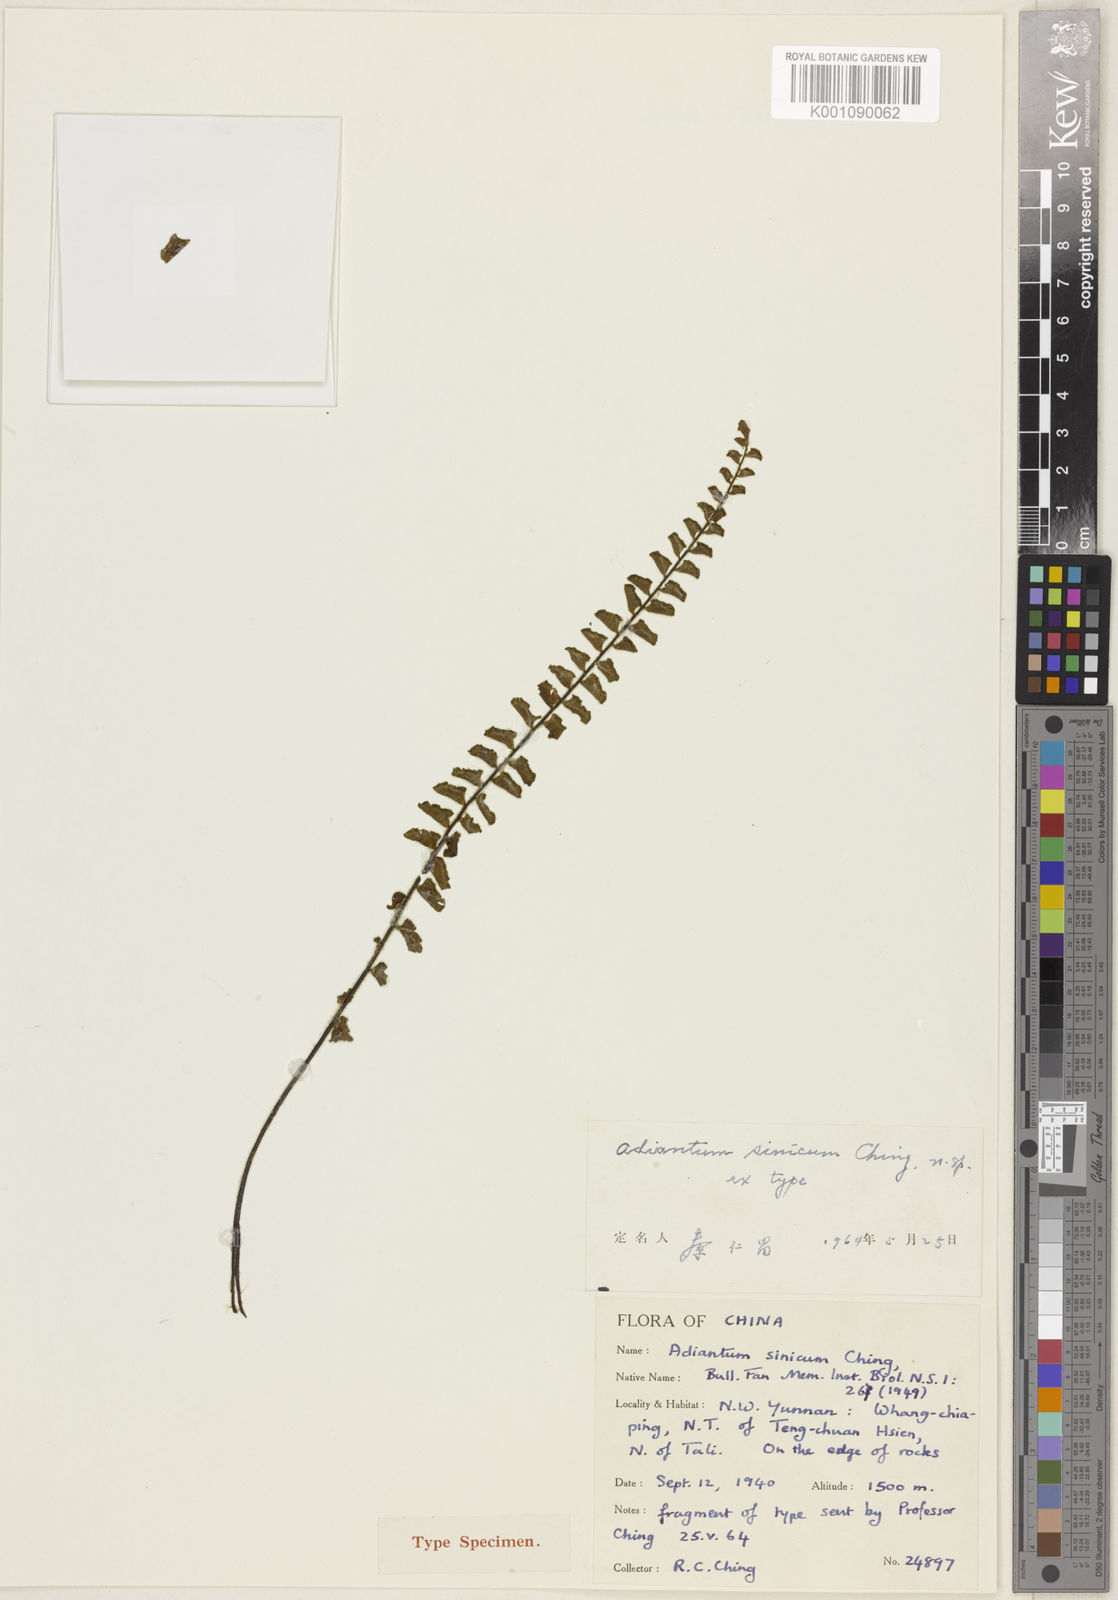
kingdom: Plantae
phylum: Tracheophyta
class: Polypodiopsida
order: Polypodiales
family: Pteridaceae
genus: Adiantum
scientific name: Adiantum incisum
